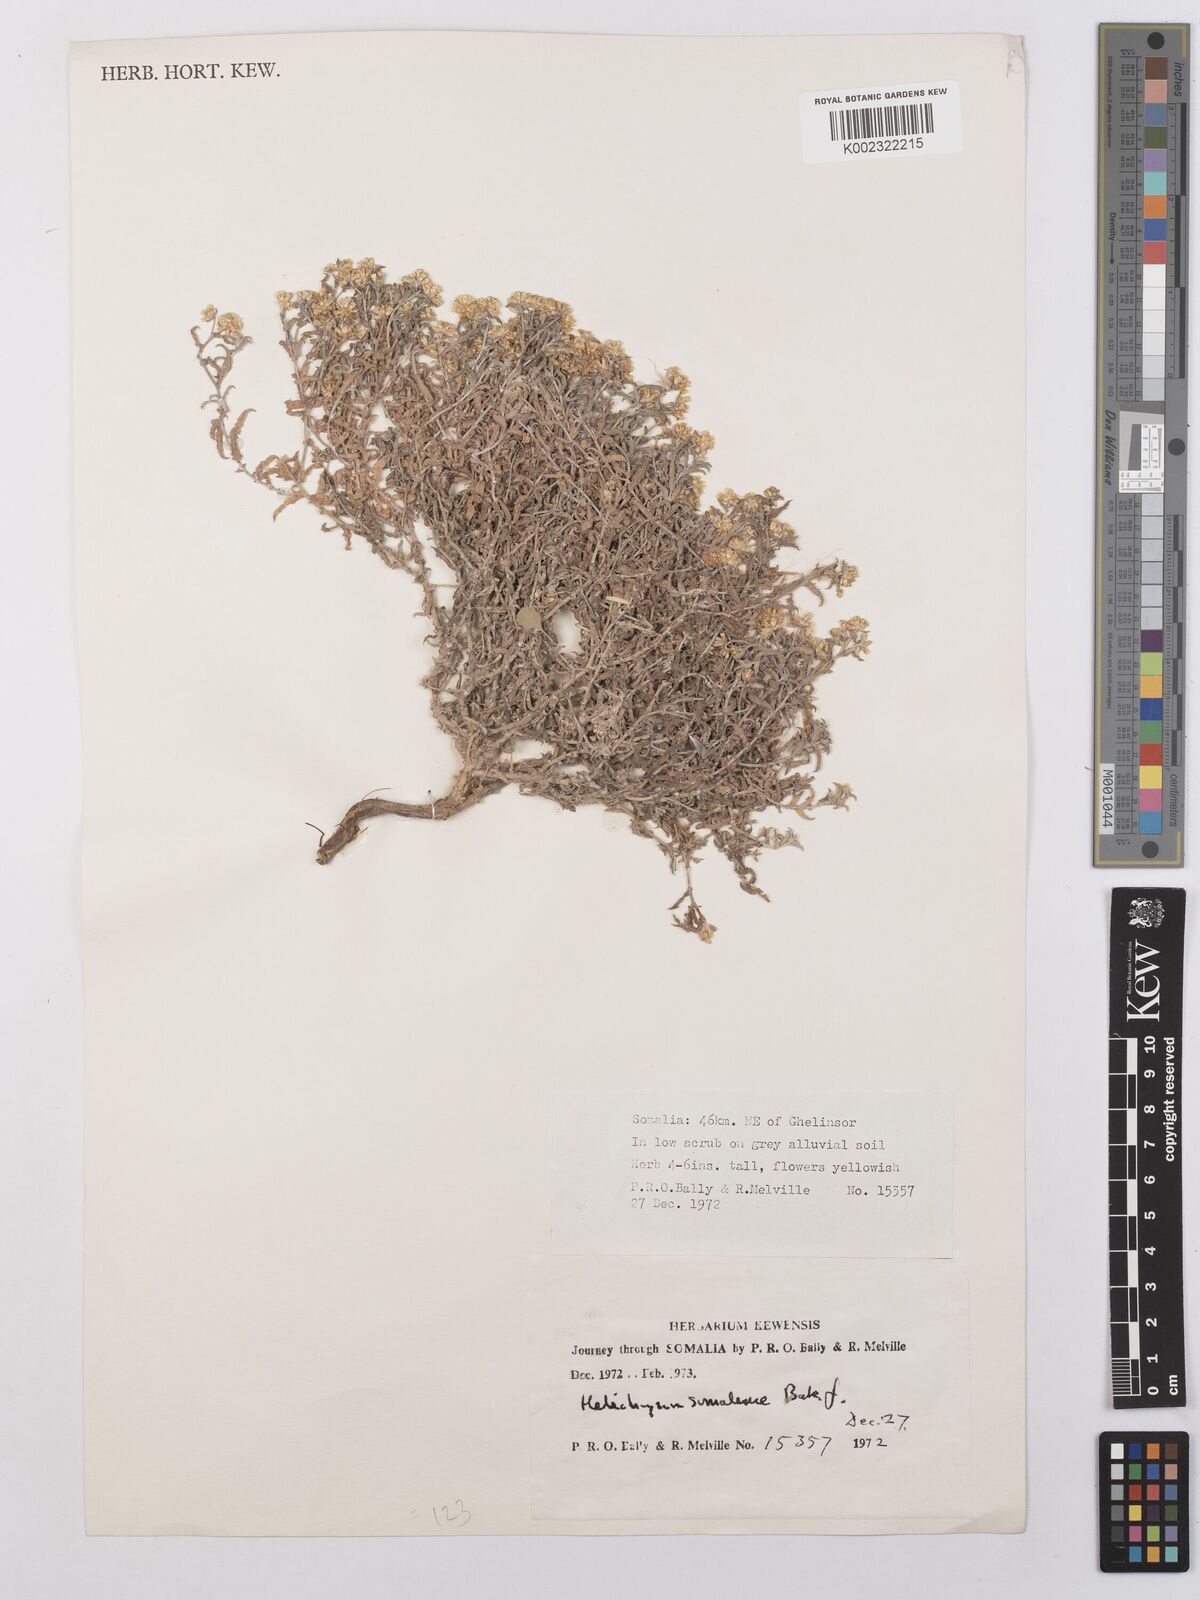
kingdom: Plantae
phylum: Tracheophyta
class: Magnoliopsida
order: Asterales
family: Asteraceae
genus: Helichrysum
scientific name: Helichrysum pumilum
